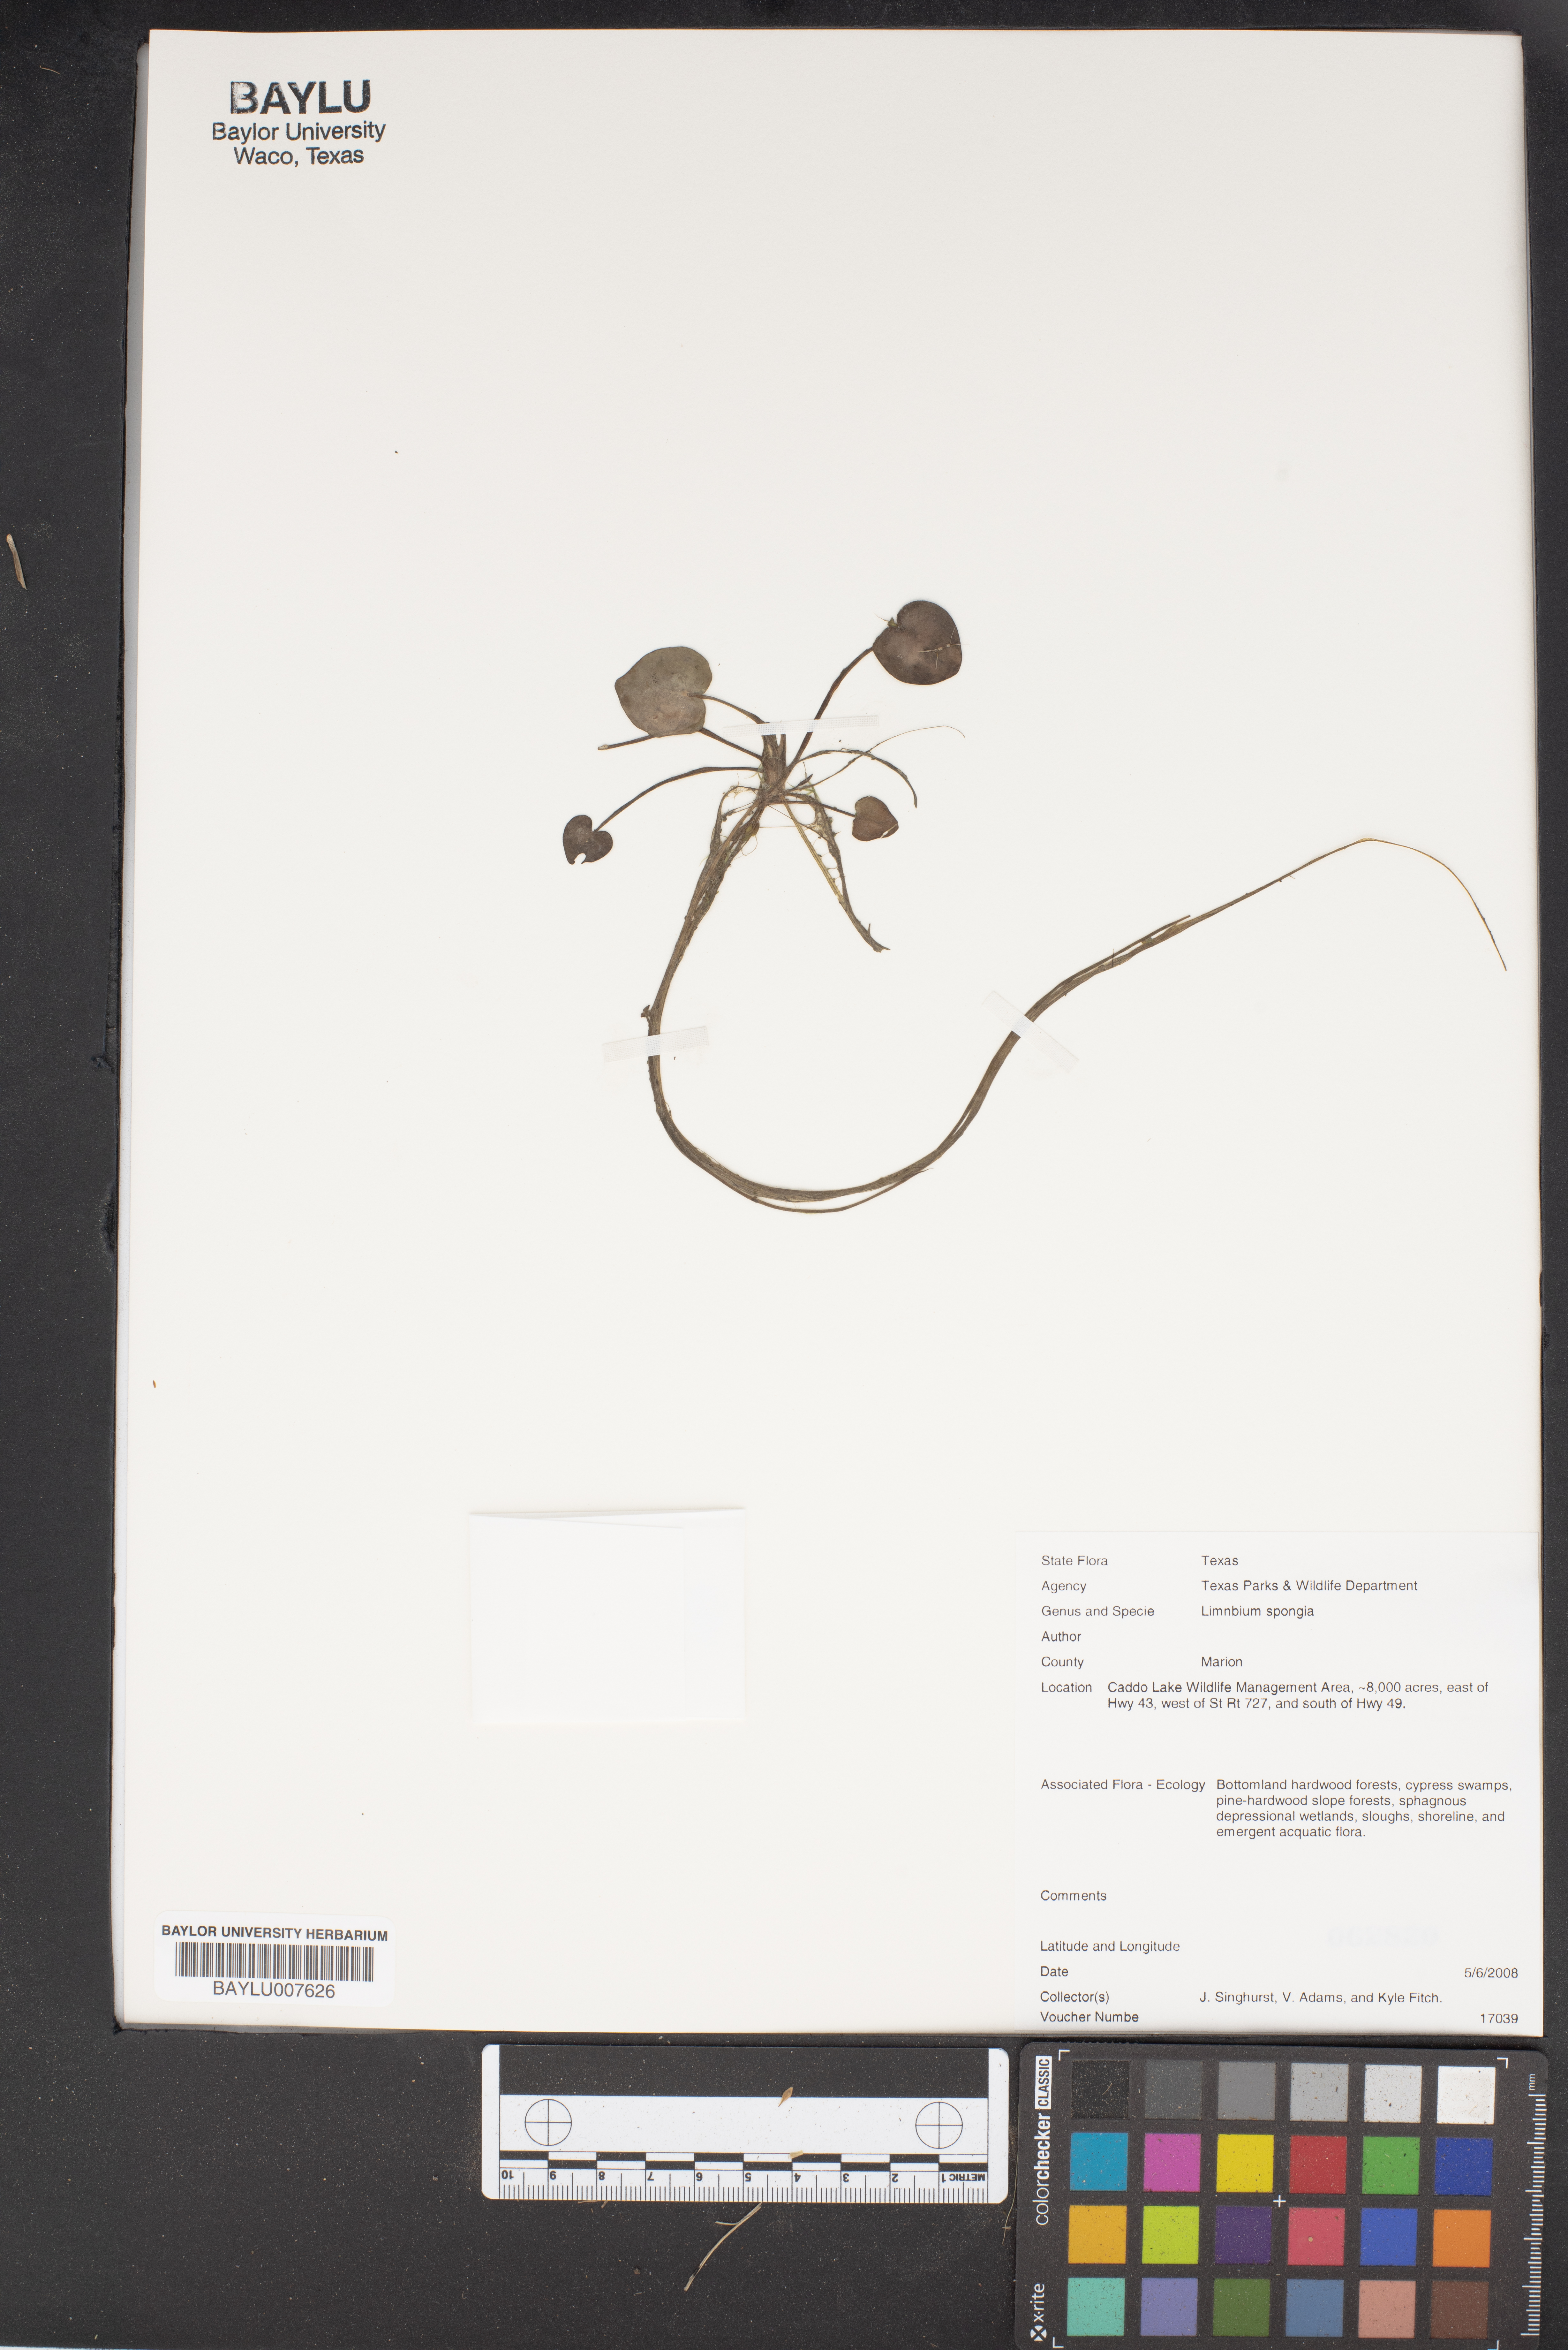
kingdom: Plantae
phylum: Tracheophyta
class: Liliopsida
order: Alismatales
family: Hydrocharitaceae
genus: Hydrocharis
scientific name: Hydrocharis spongia
